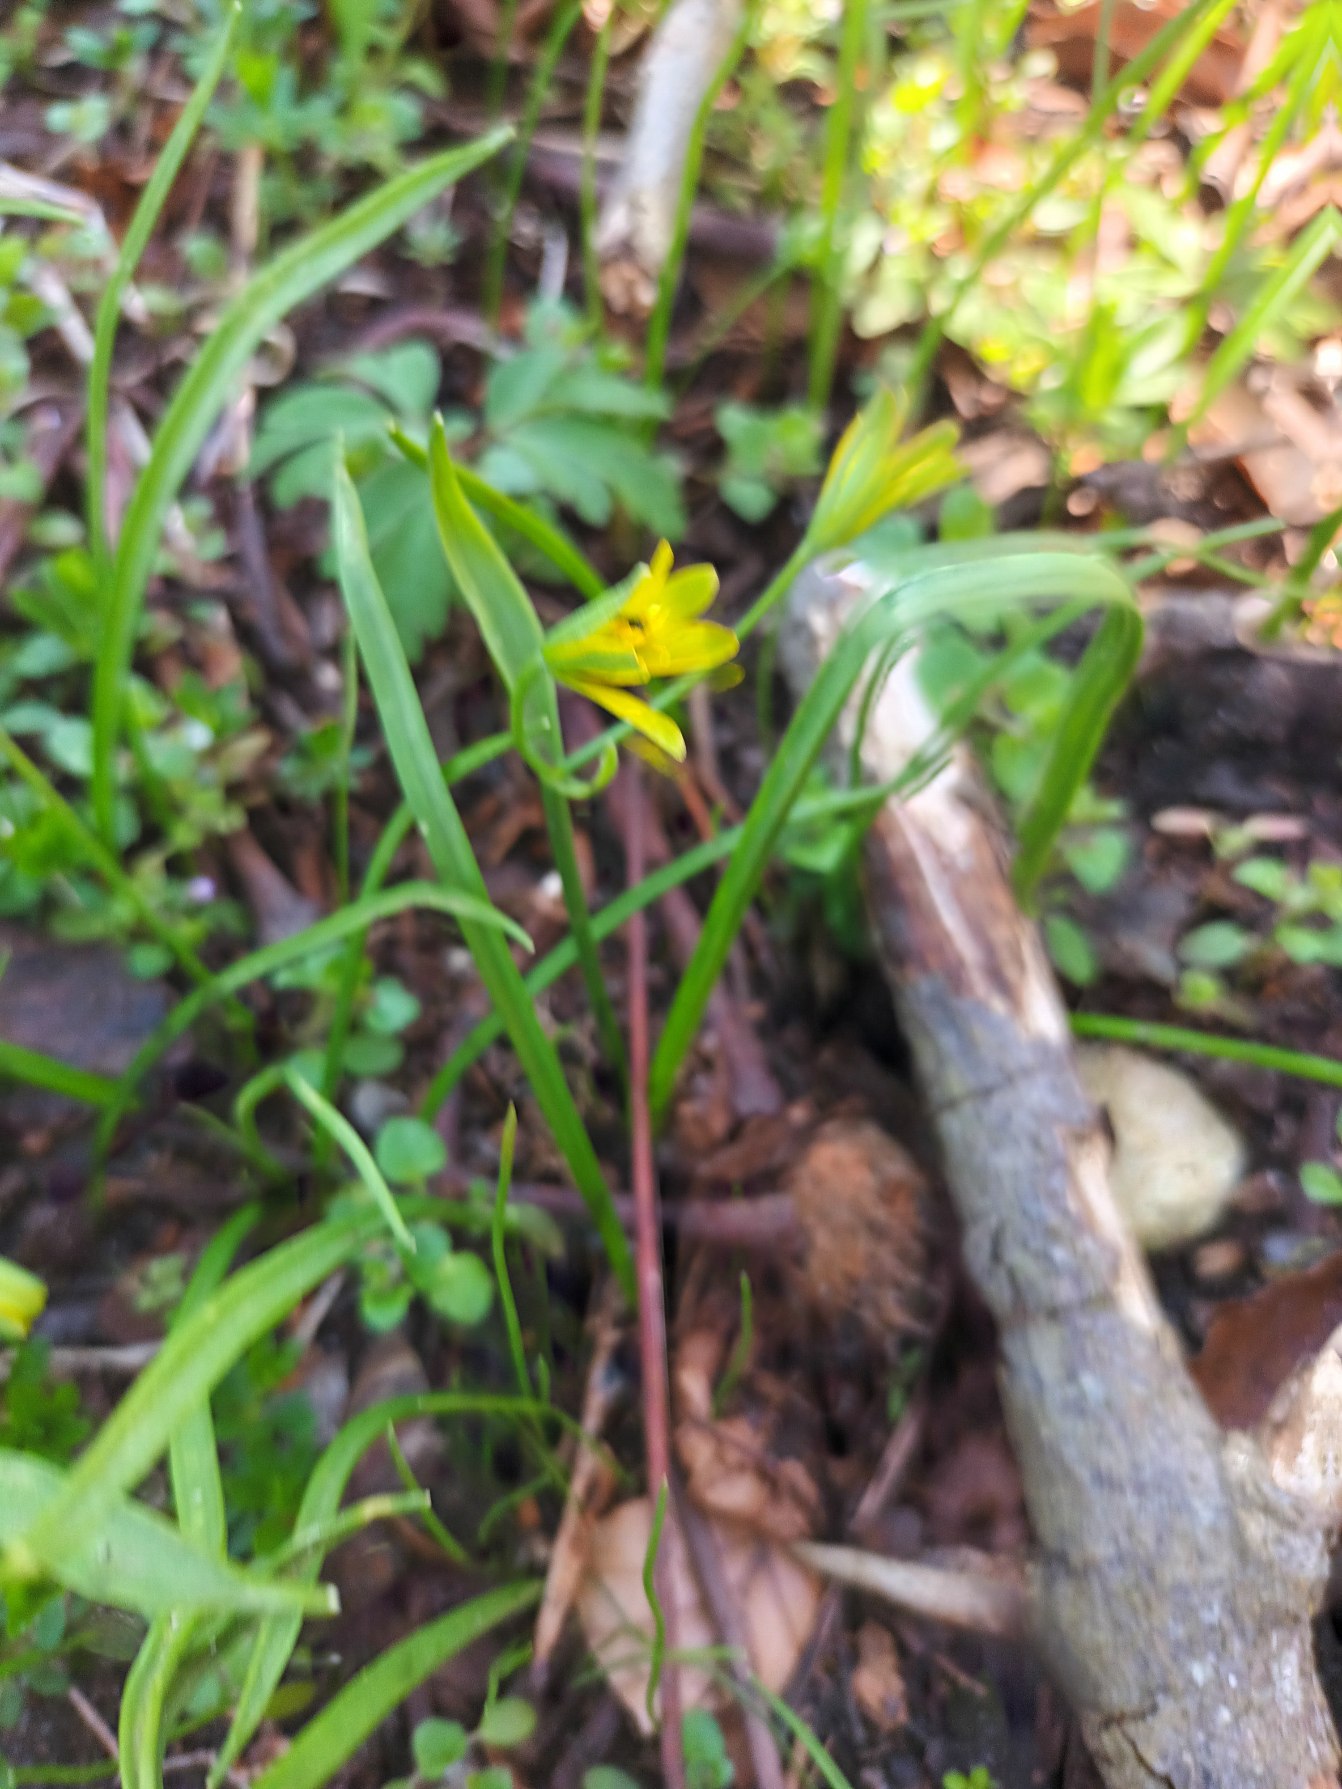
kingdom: Plantae
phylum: Tracheophyta
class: Liliopsida
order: Liliales
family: Liliaceae
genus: Gagea
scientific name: Gagea lutea
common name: Almindelig guldstjerne
